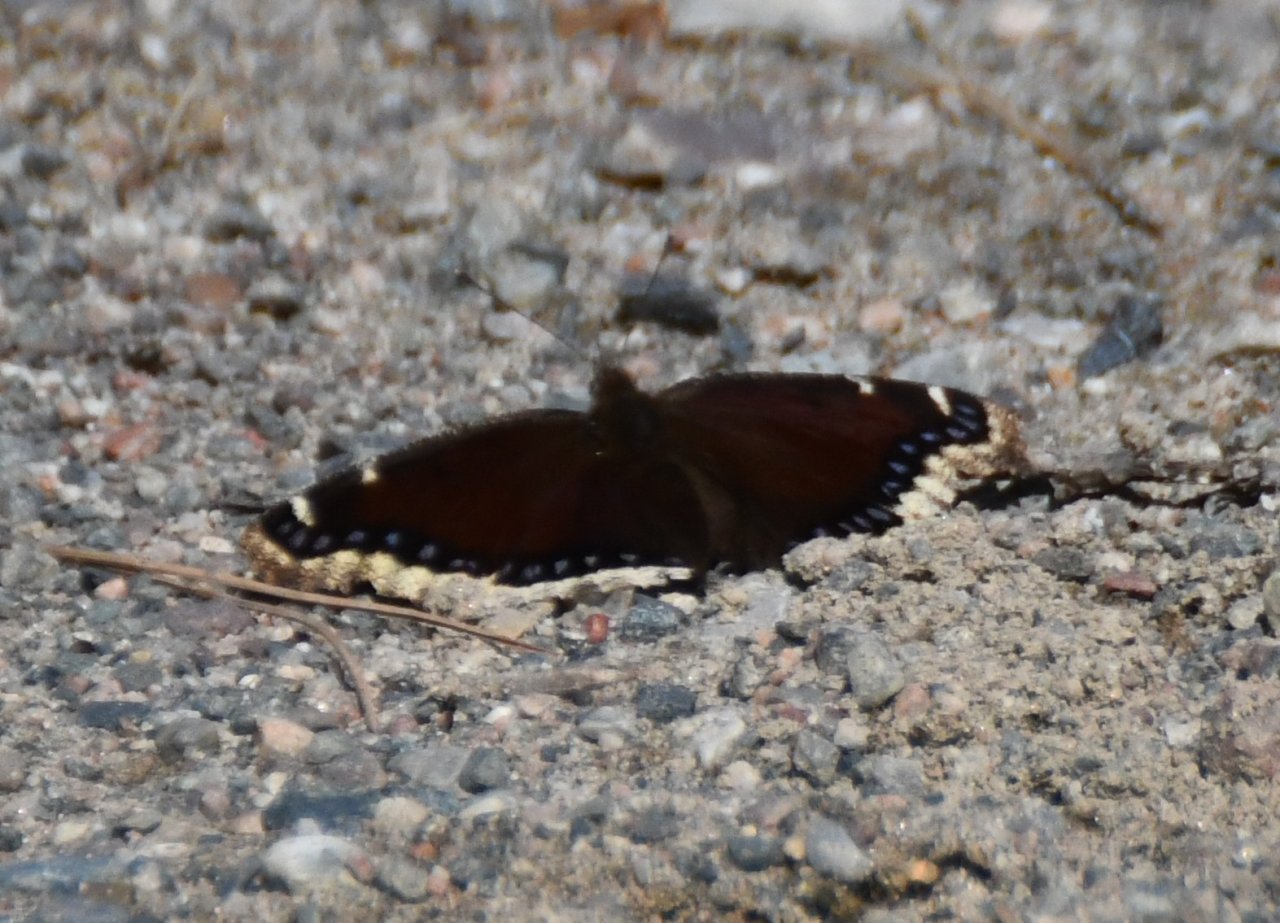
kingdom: Animalia
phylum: Arthropoda
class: Insecta
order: Lepidoptera
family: Nymphalidae
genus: Nymphalis
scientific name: Nymphalis antiopa
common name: Mourning Cloak
